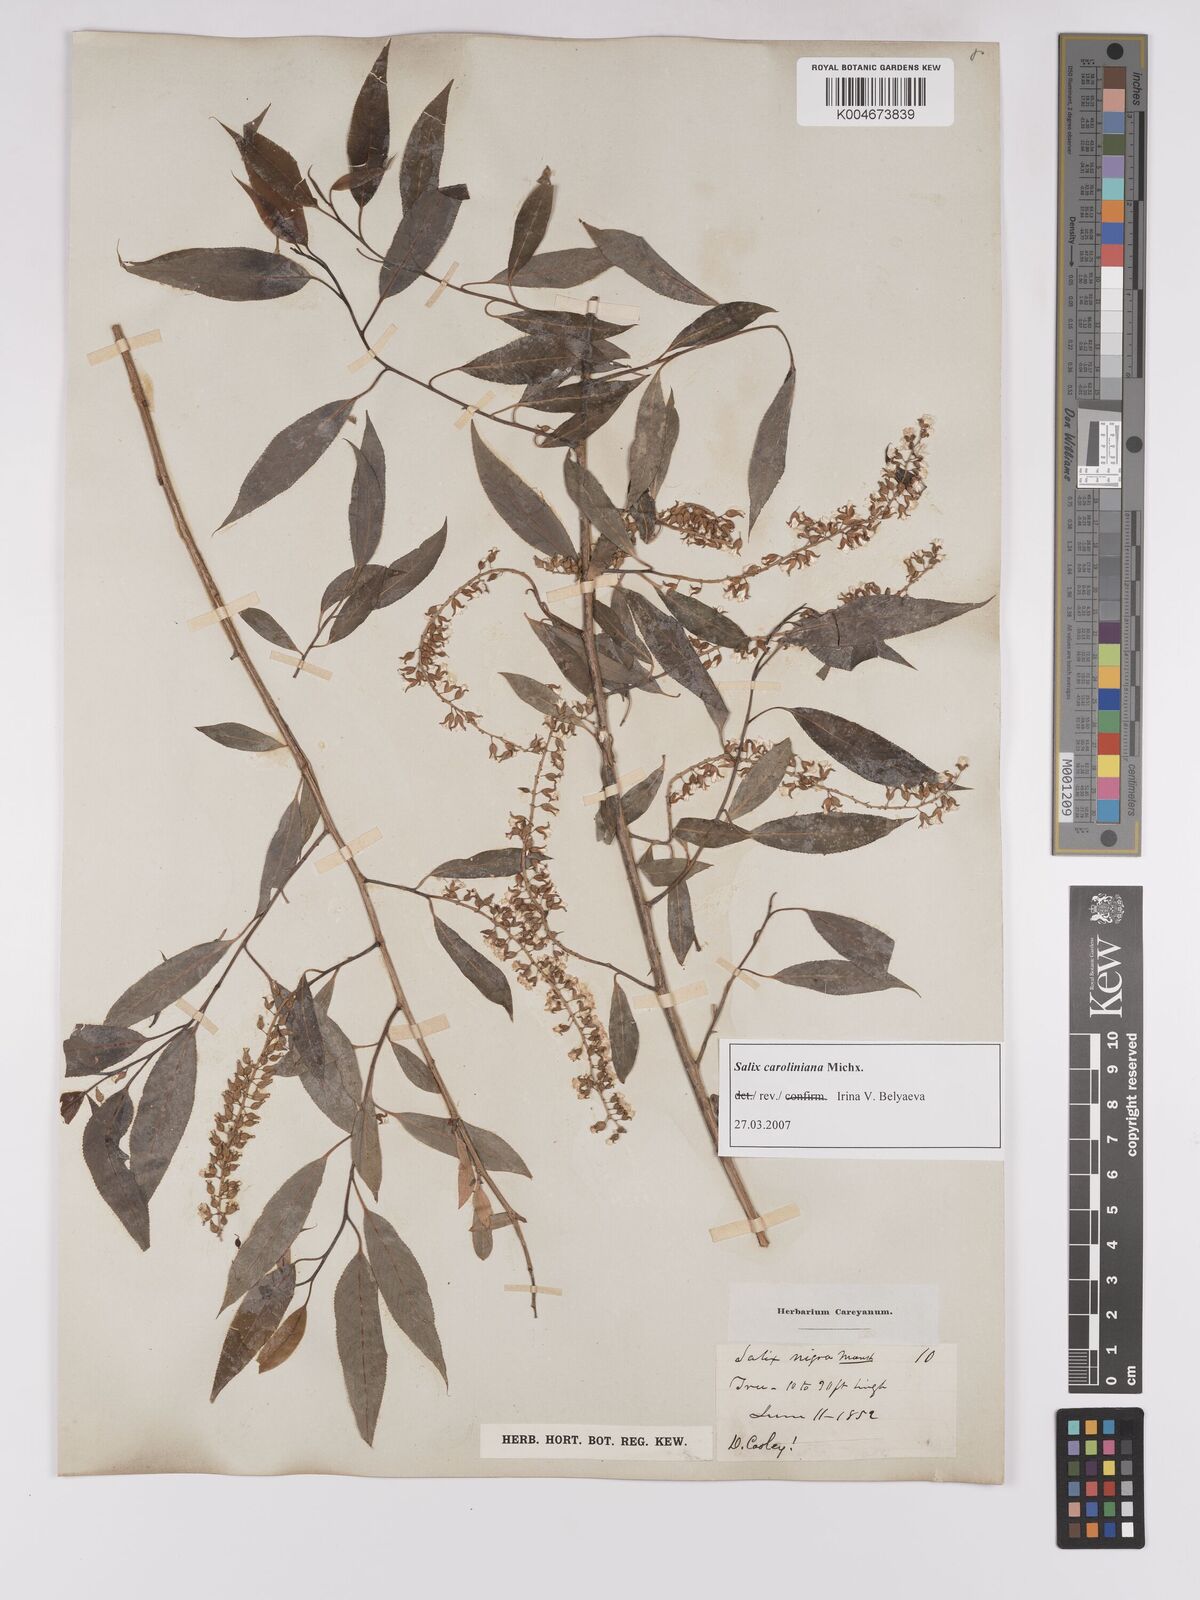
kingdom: Plantae
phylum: Tracheophyta
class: Magnoliopsida
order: Malpighiales
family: Salicaceae
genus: Salix
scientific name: Salix caroliniana
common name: Carolina willow
